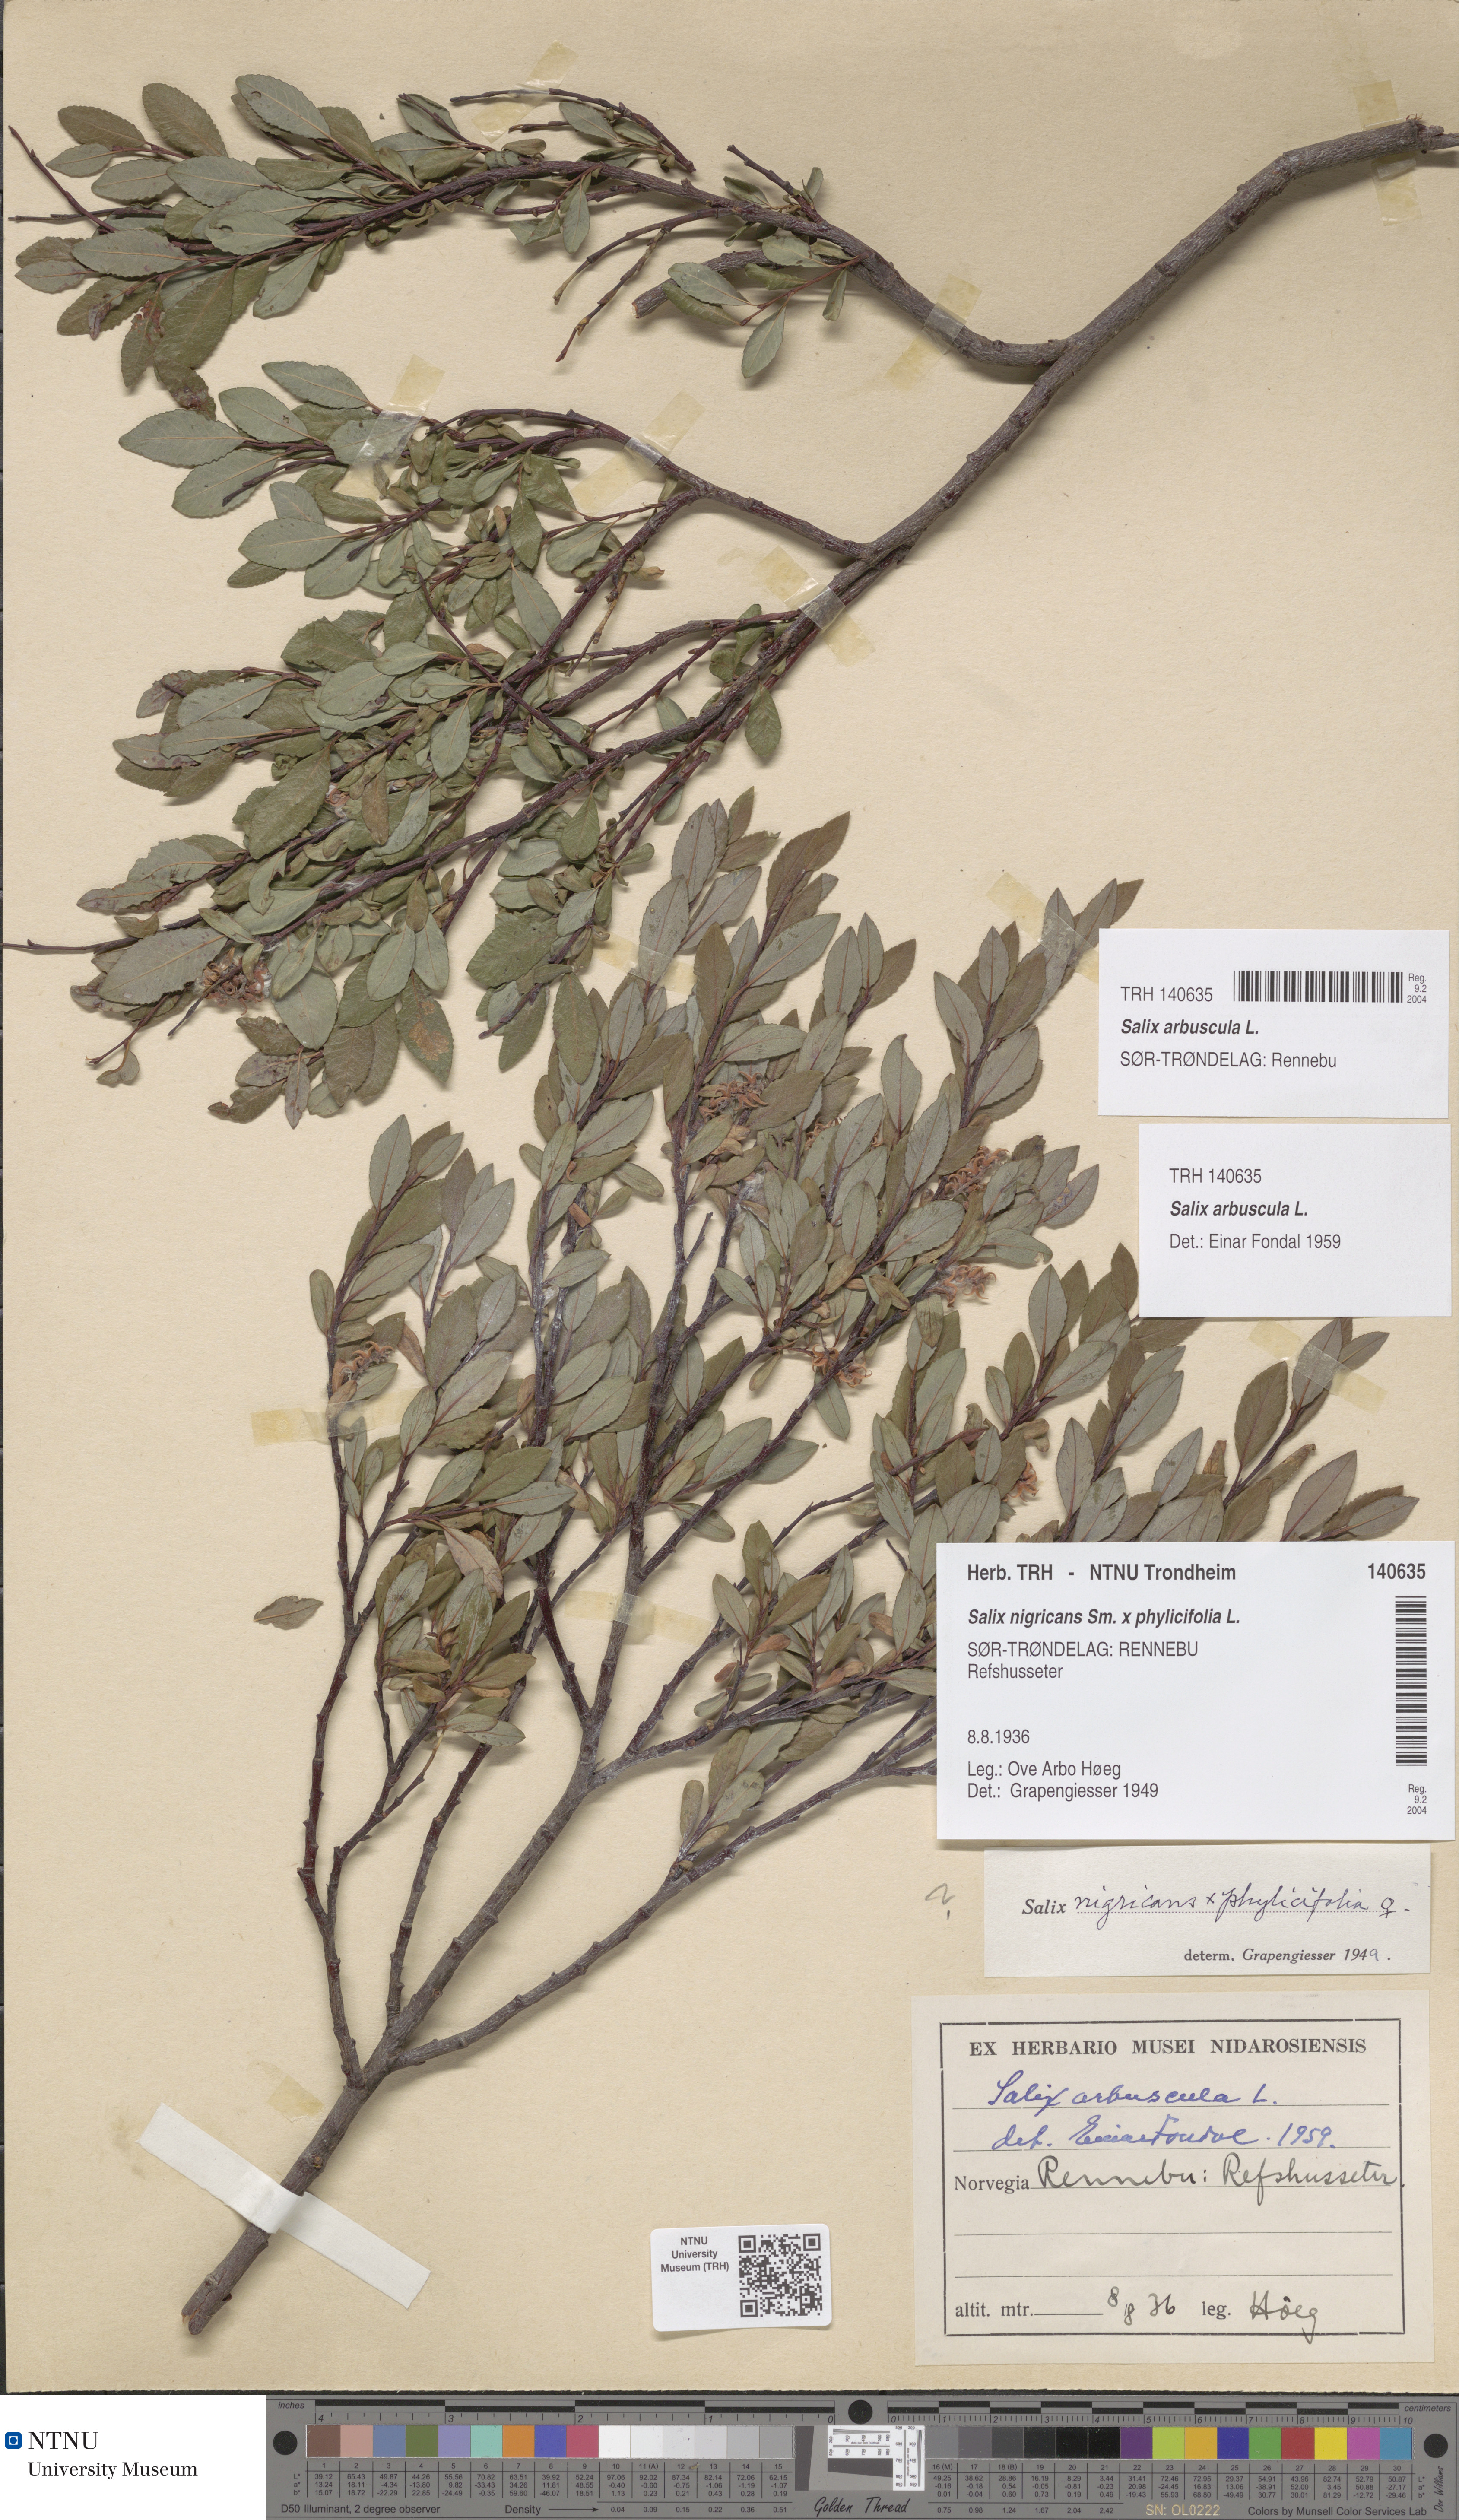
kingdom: Plantae
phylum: Tracheophyta
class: Magnoliopsida
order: Malpighiales
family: Salicaceae
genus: Salix
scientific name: Salix arbuscula
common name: Mountain willow
